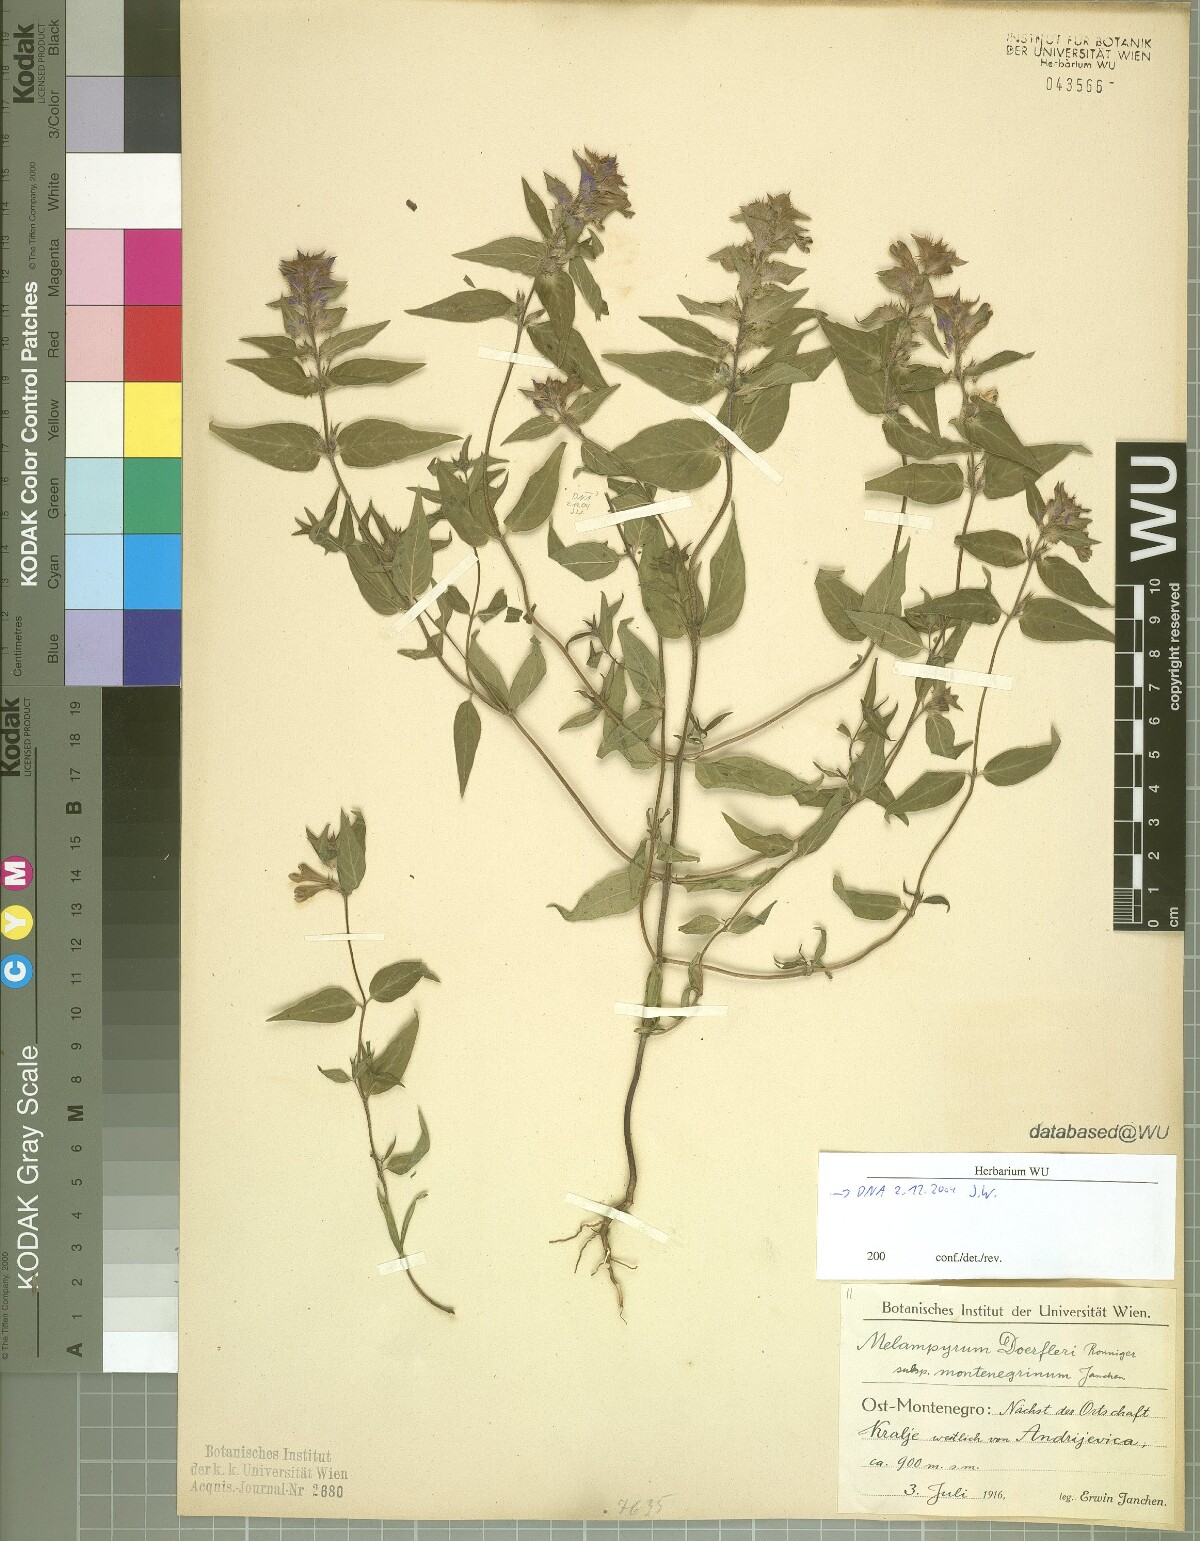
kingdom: Plantae
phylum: Tracheophyta
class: Magnoliopsida
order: Lamiales
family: Orobanchaceae
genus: Melampyrum
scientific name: Melampyrum doerfleri
